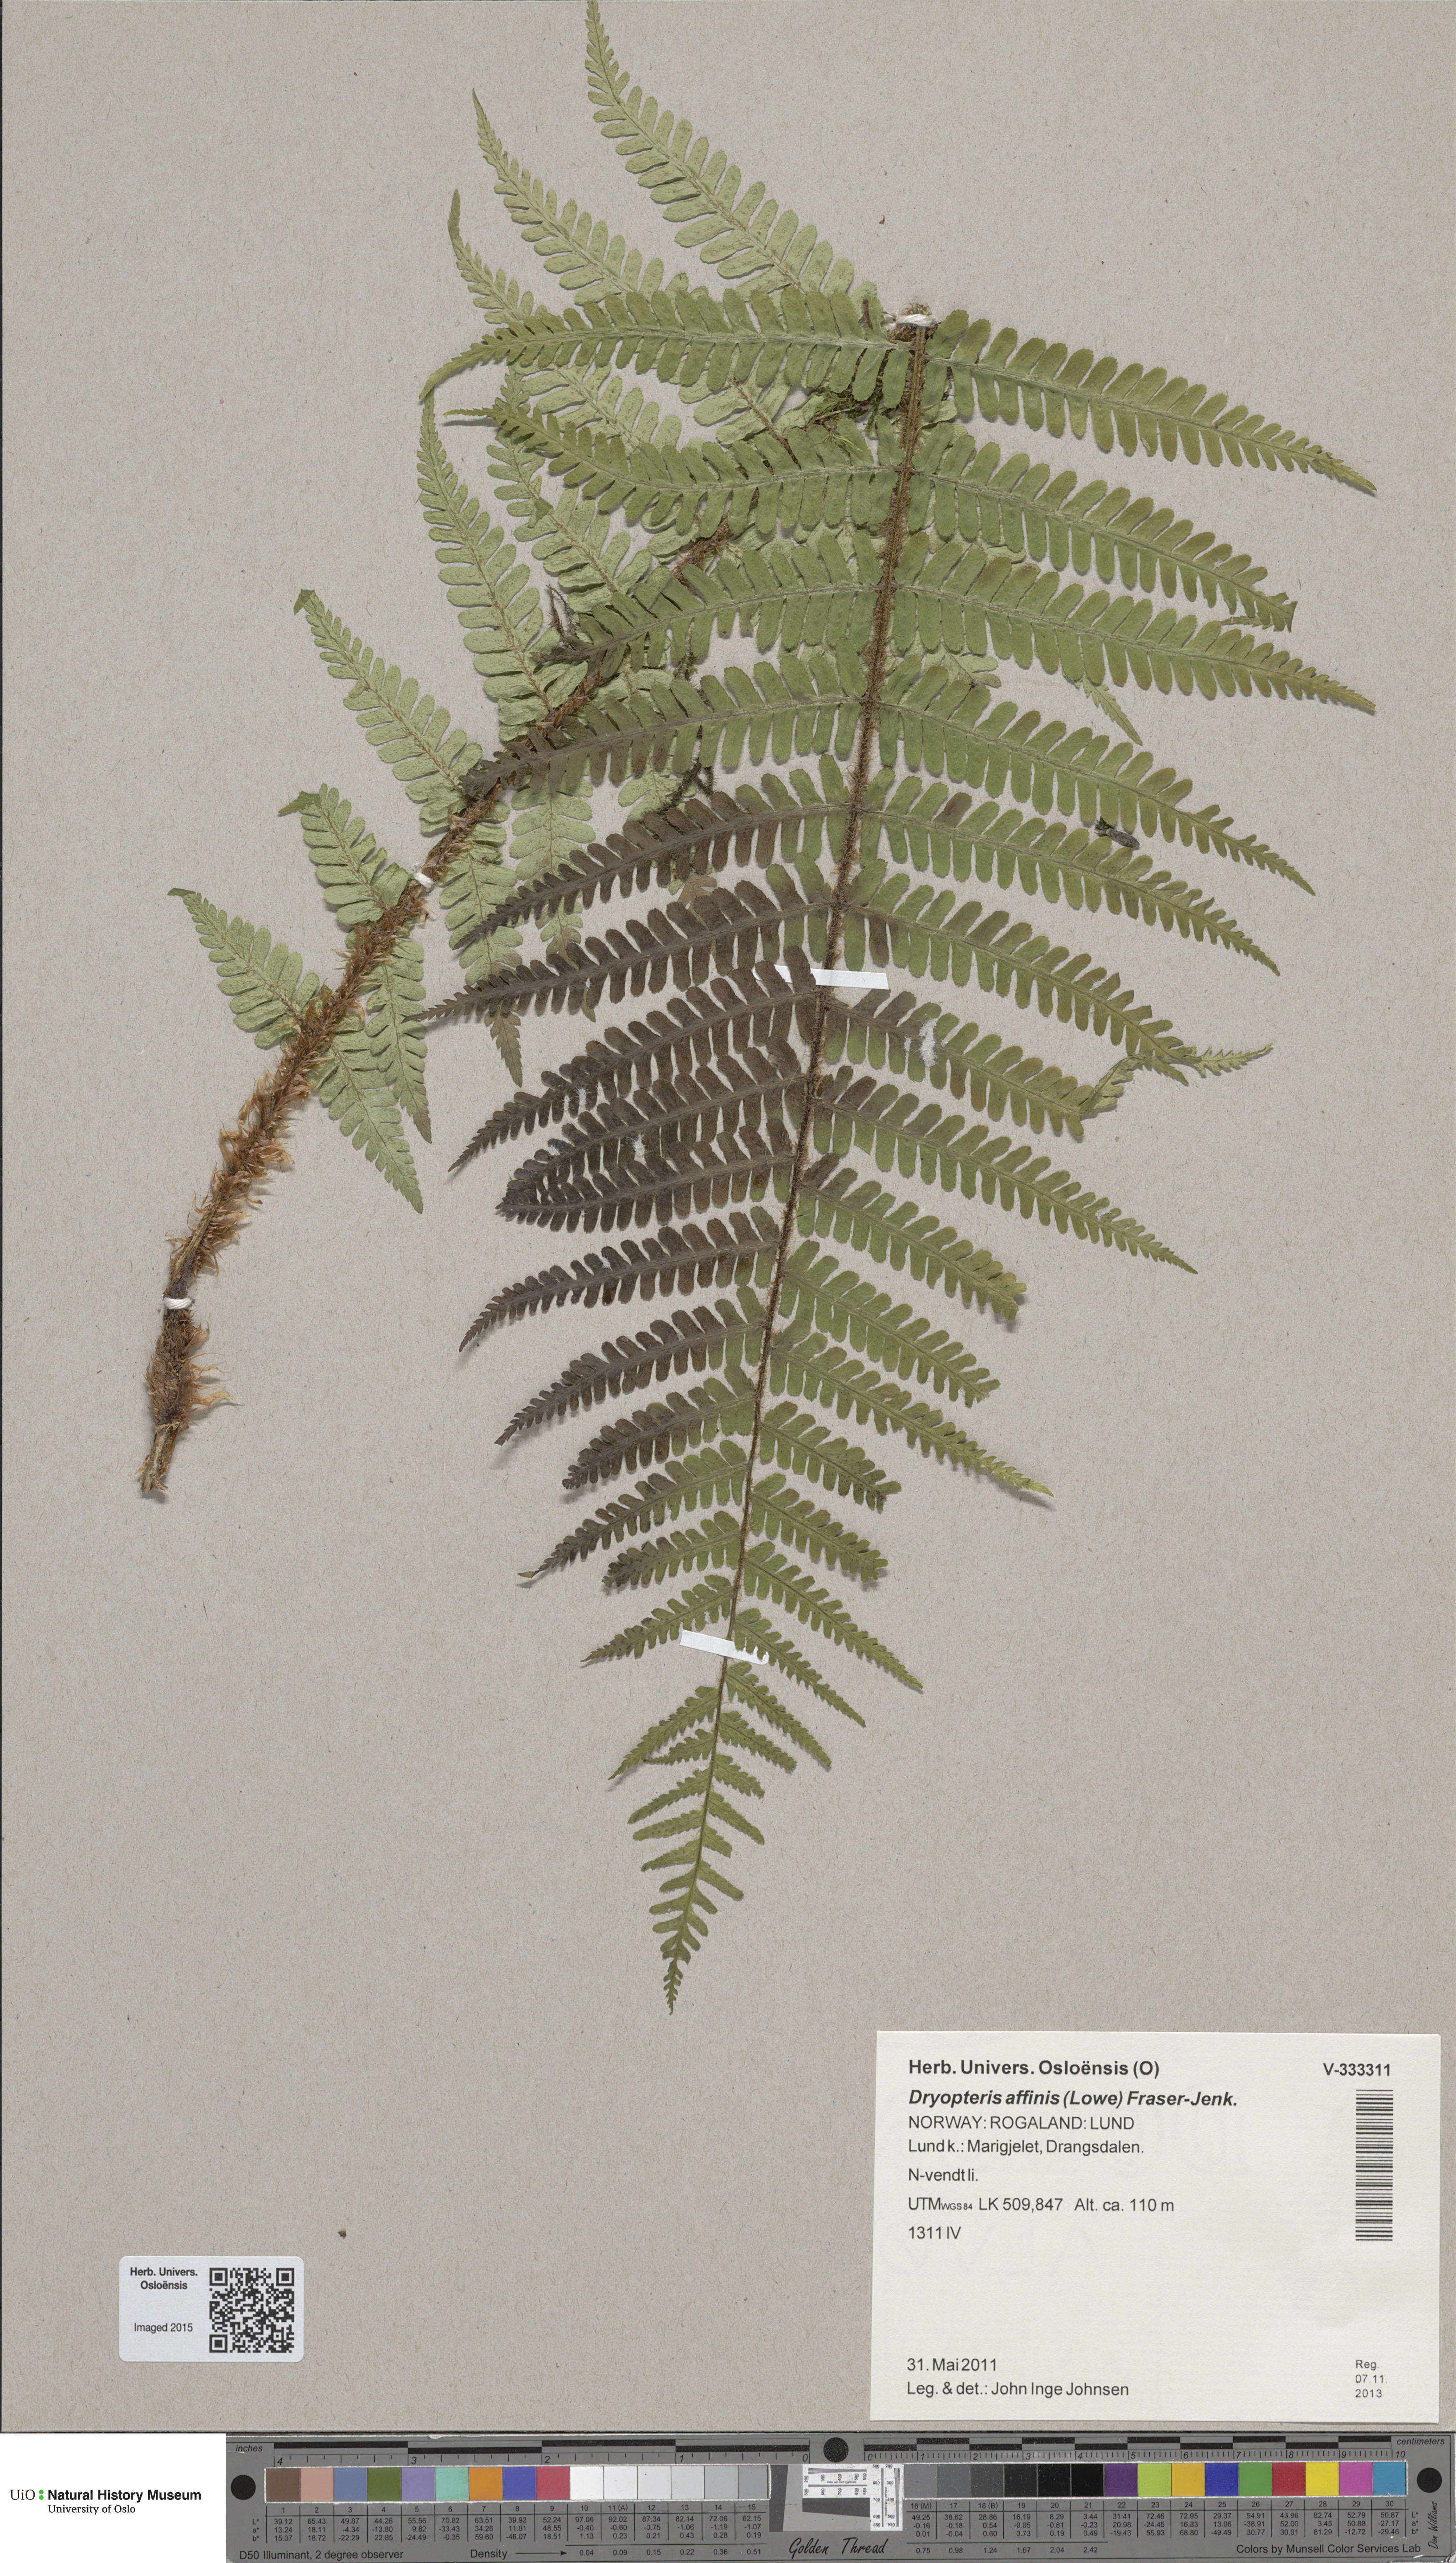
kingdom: Plantae
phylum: Tracheophyta
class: Polypodiopsida
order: Polypodiales
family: Dryopteridaceae
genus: Dryopteris
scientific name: Dryopteris affinis
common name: Scaly male fern
